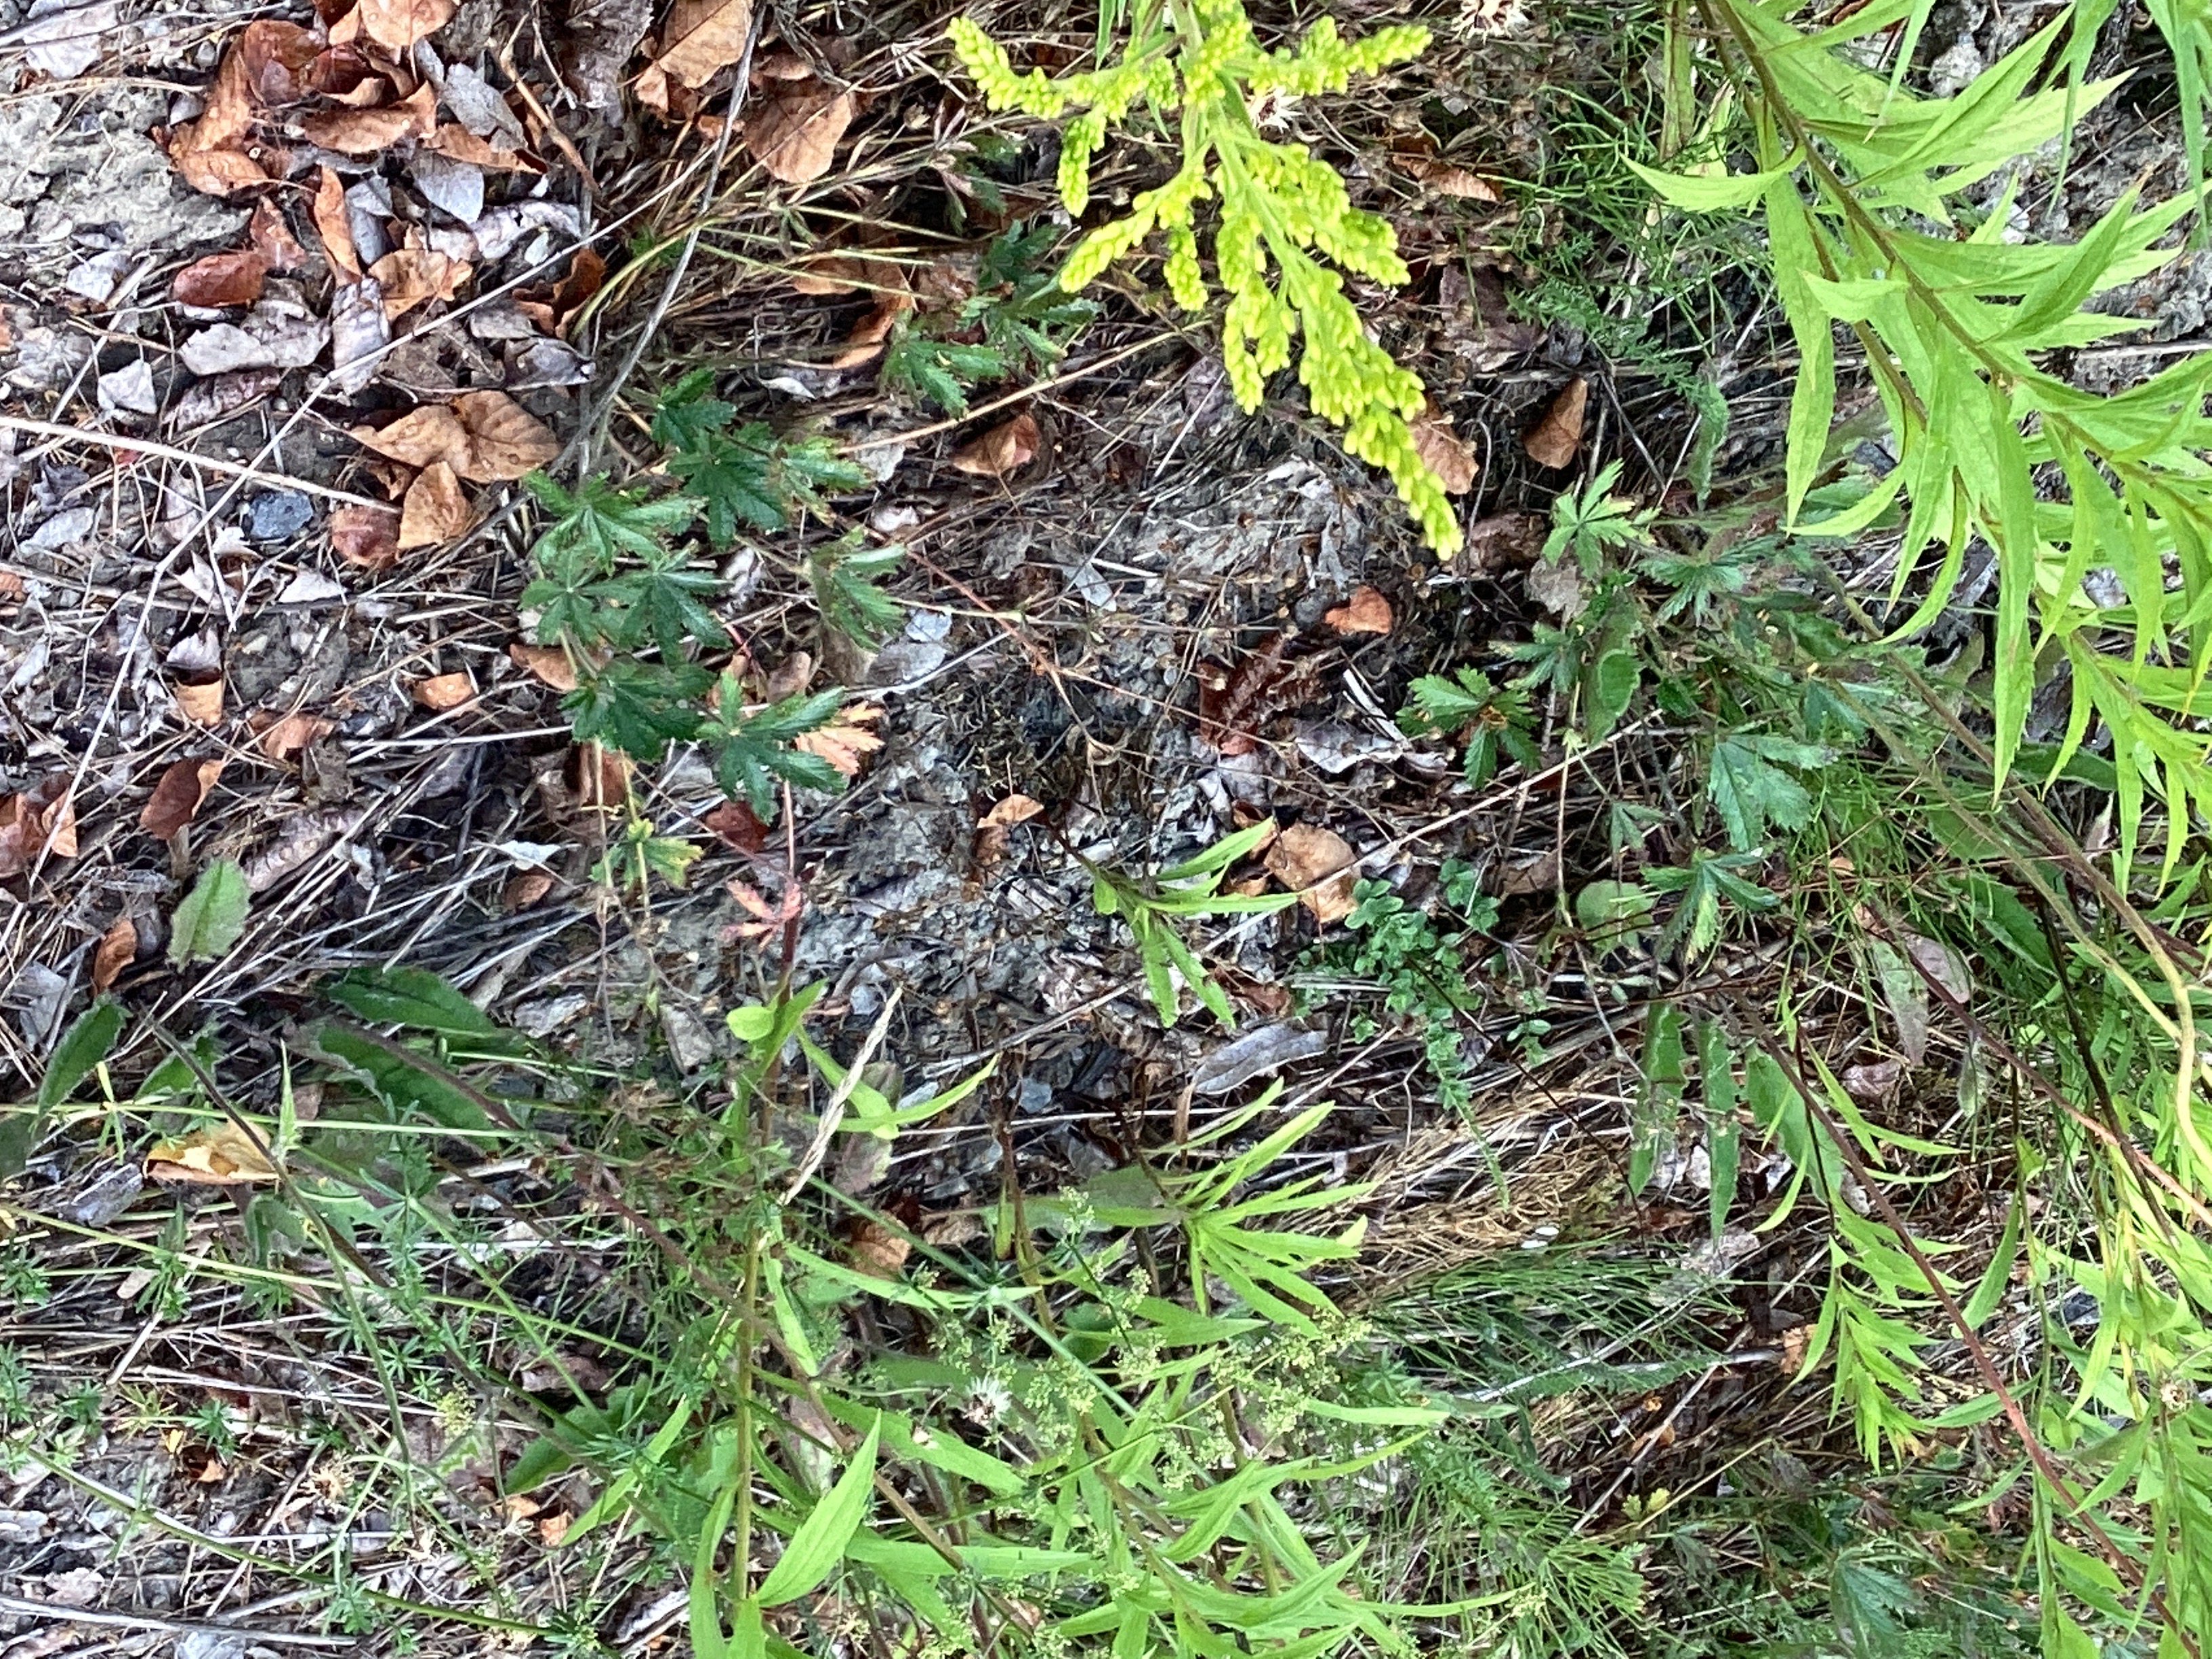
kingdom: Plantae
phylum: Tracheophyta
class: Magnoliopsida
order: Rosales
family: Rosaceae
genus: Potentilla
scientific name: Potentilla thuringiaca
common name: tysk mure
